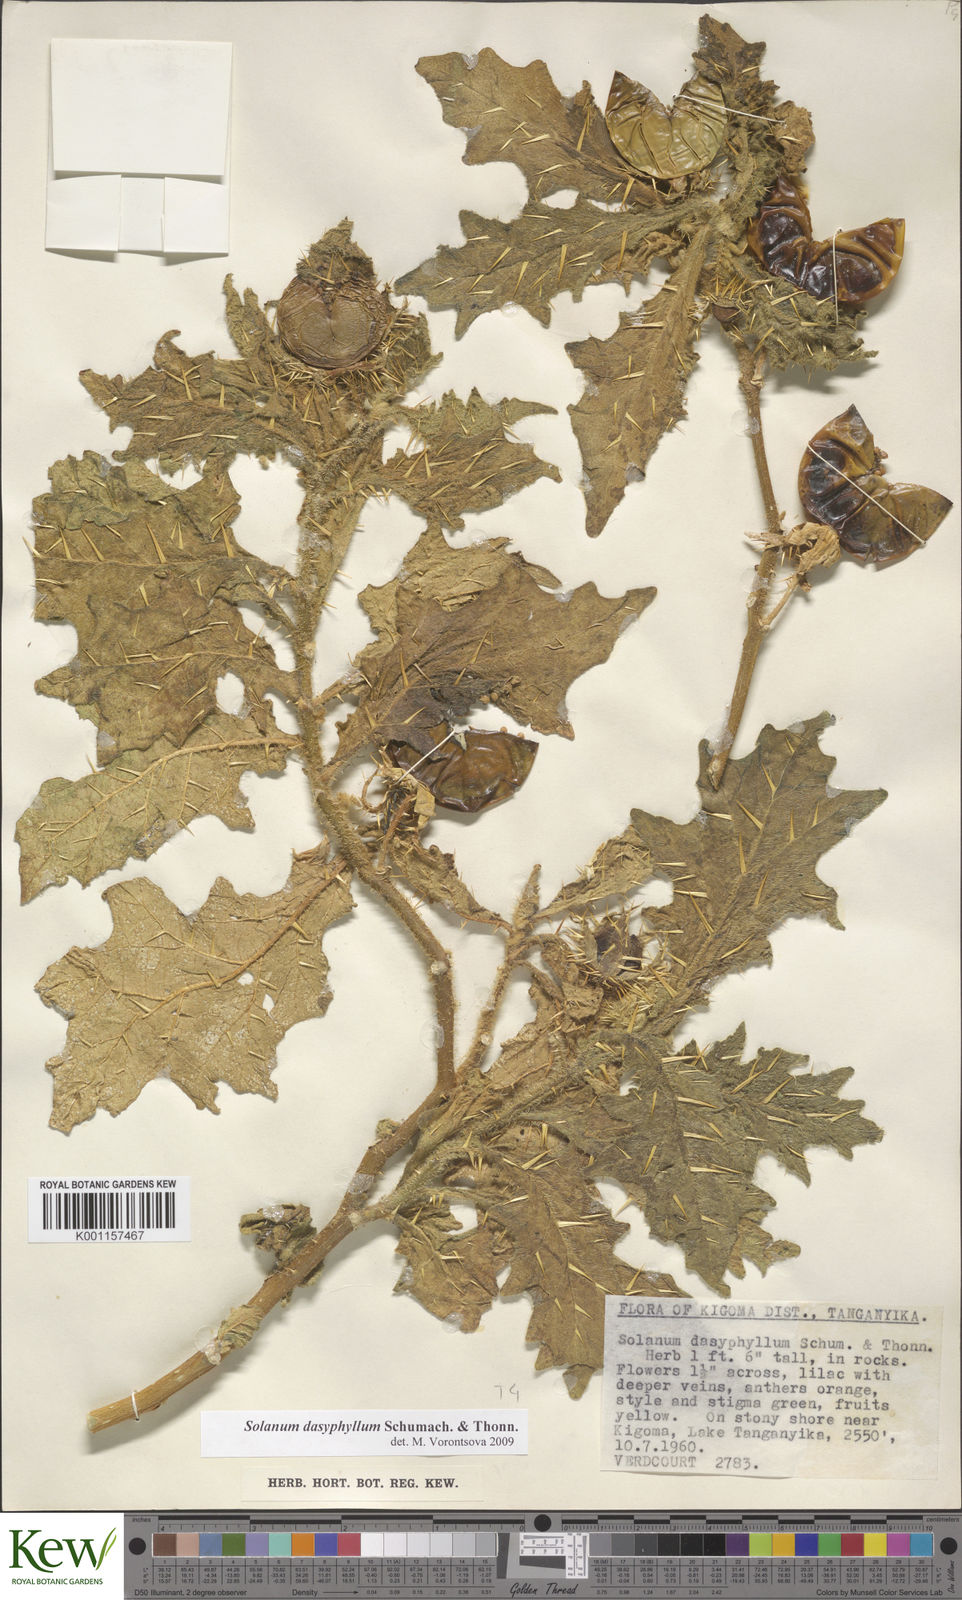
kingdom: Plantae
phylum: Tracheophyta
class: Magnoliopsida
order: Solanales
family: Solanaceae
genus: Solanum
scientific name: Solanum dasyphyllum
